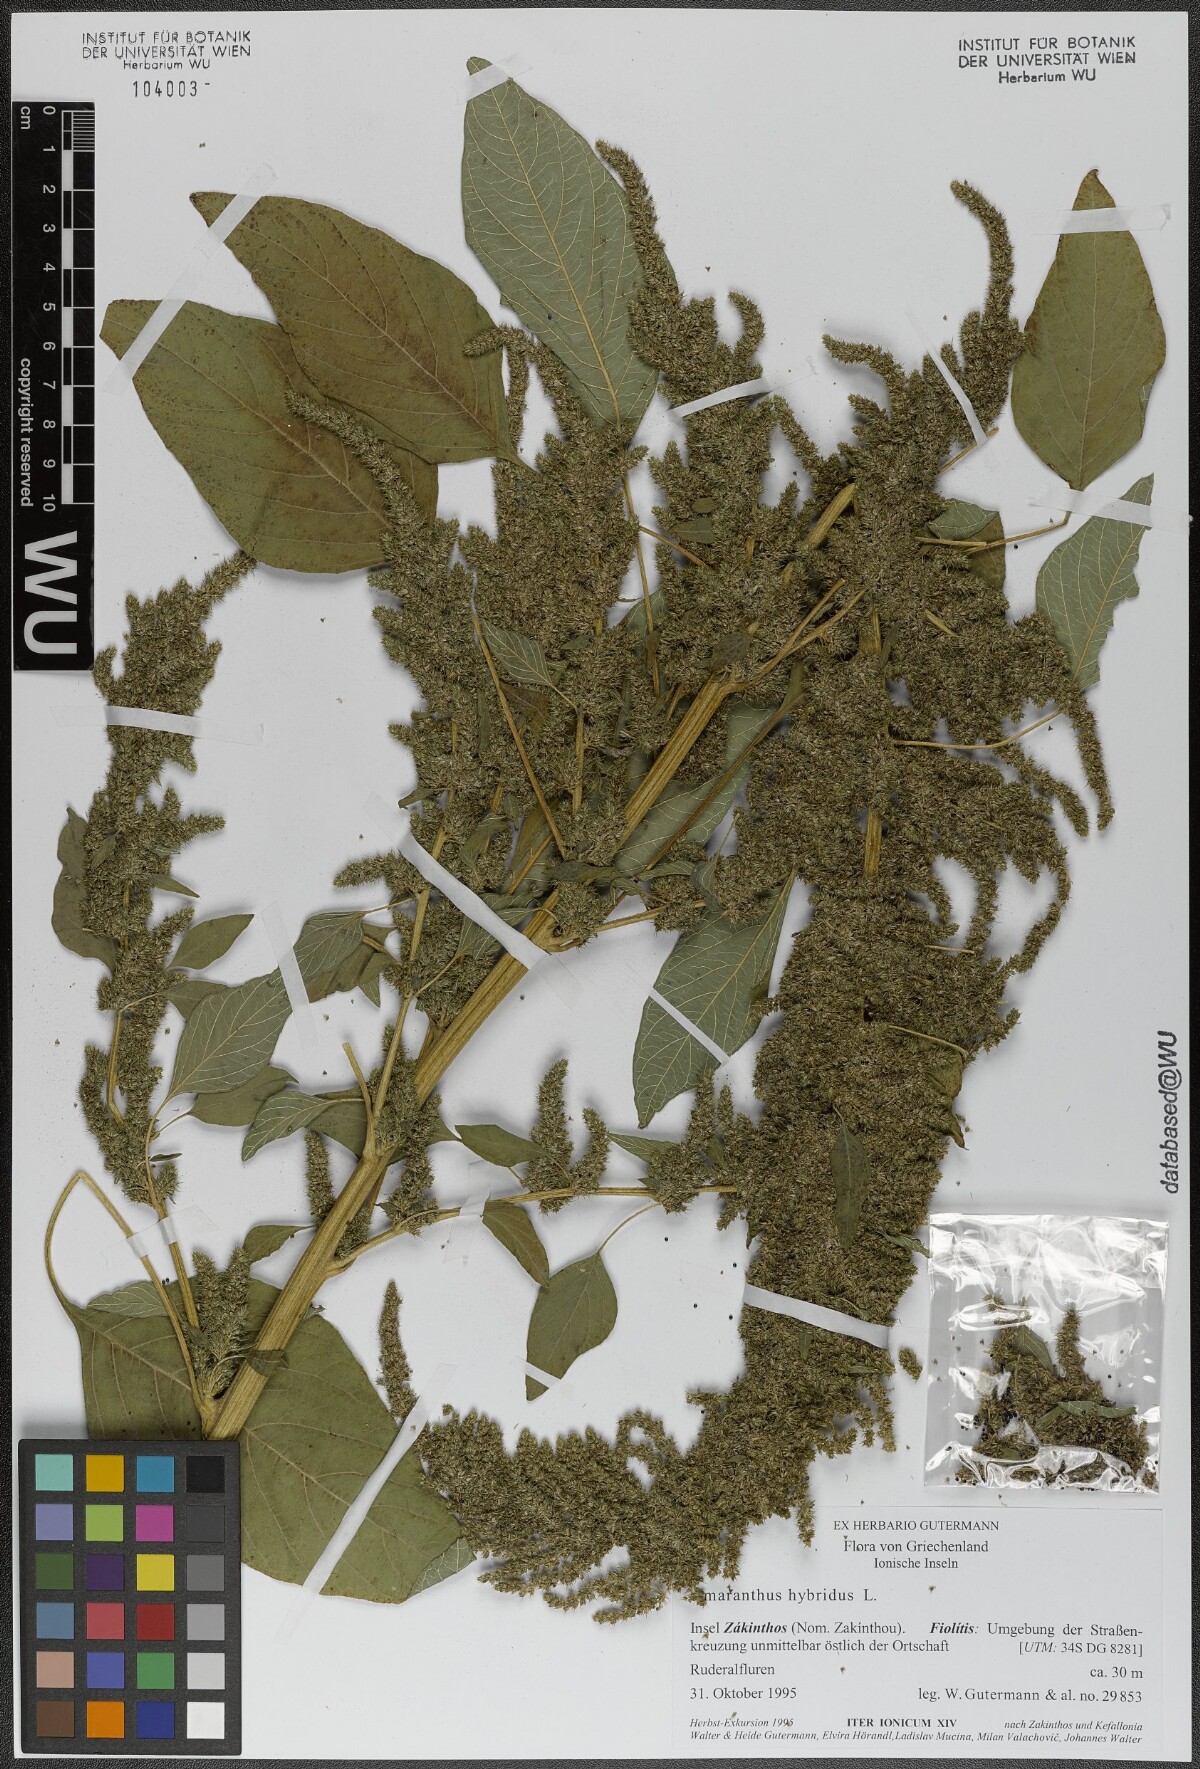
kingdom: Plantae
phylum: Tracheophyta
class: Magnoliopsida
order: Caryophyllales
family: Amaranthaceae
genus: Amaranthus
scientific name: Amaranthus hybridus
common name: Green amaranth
